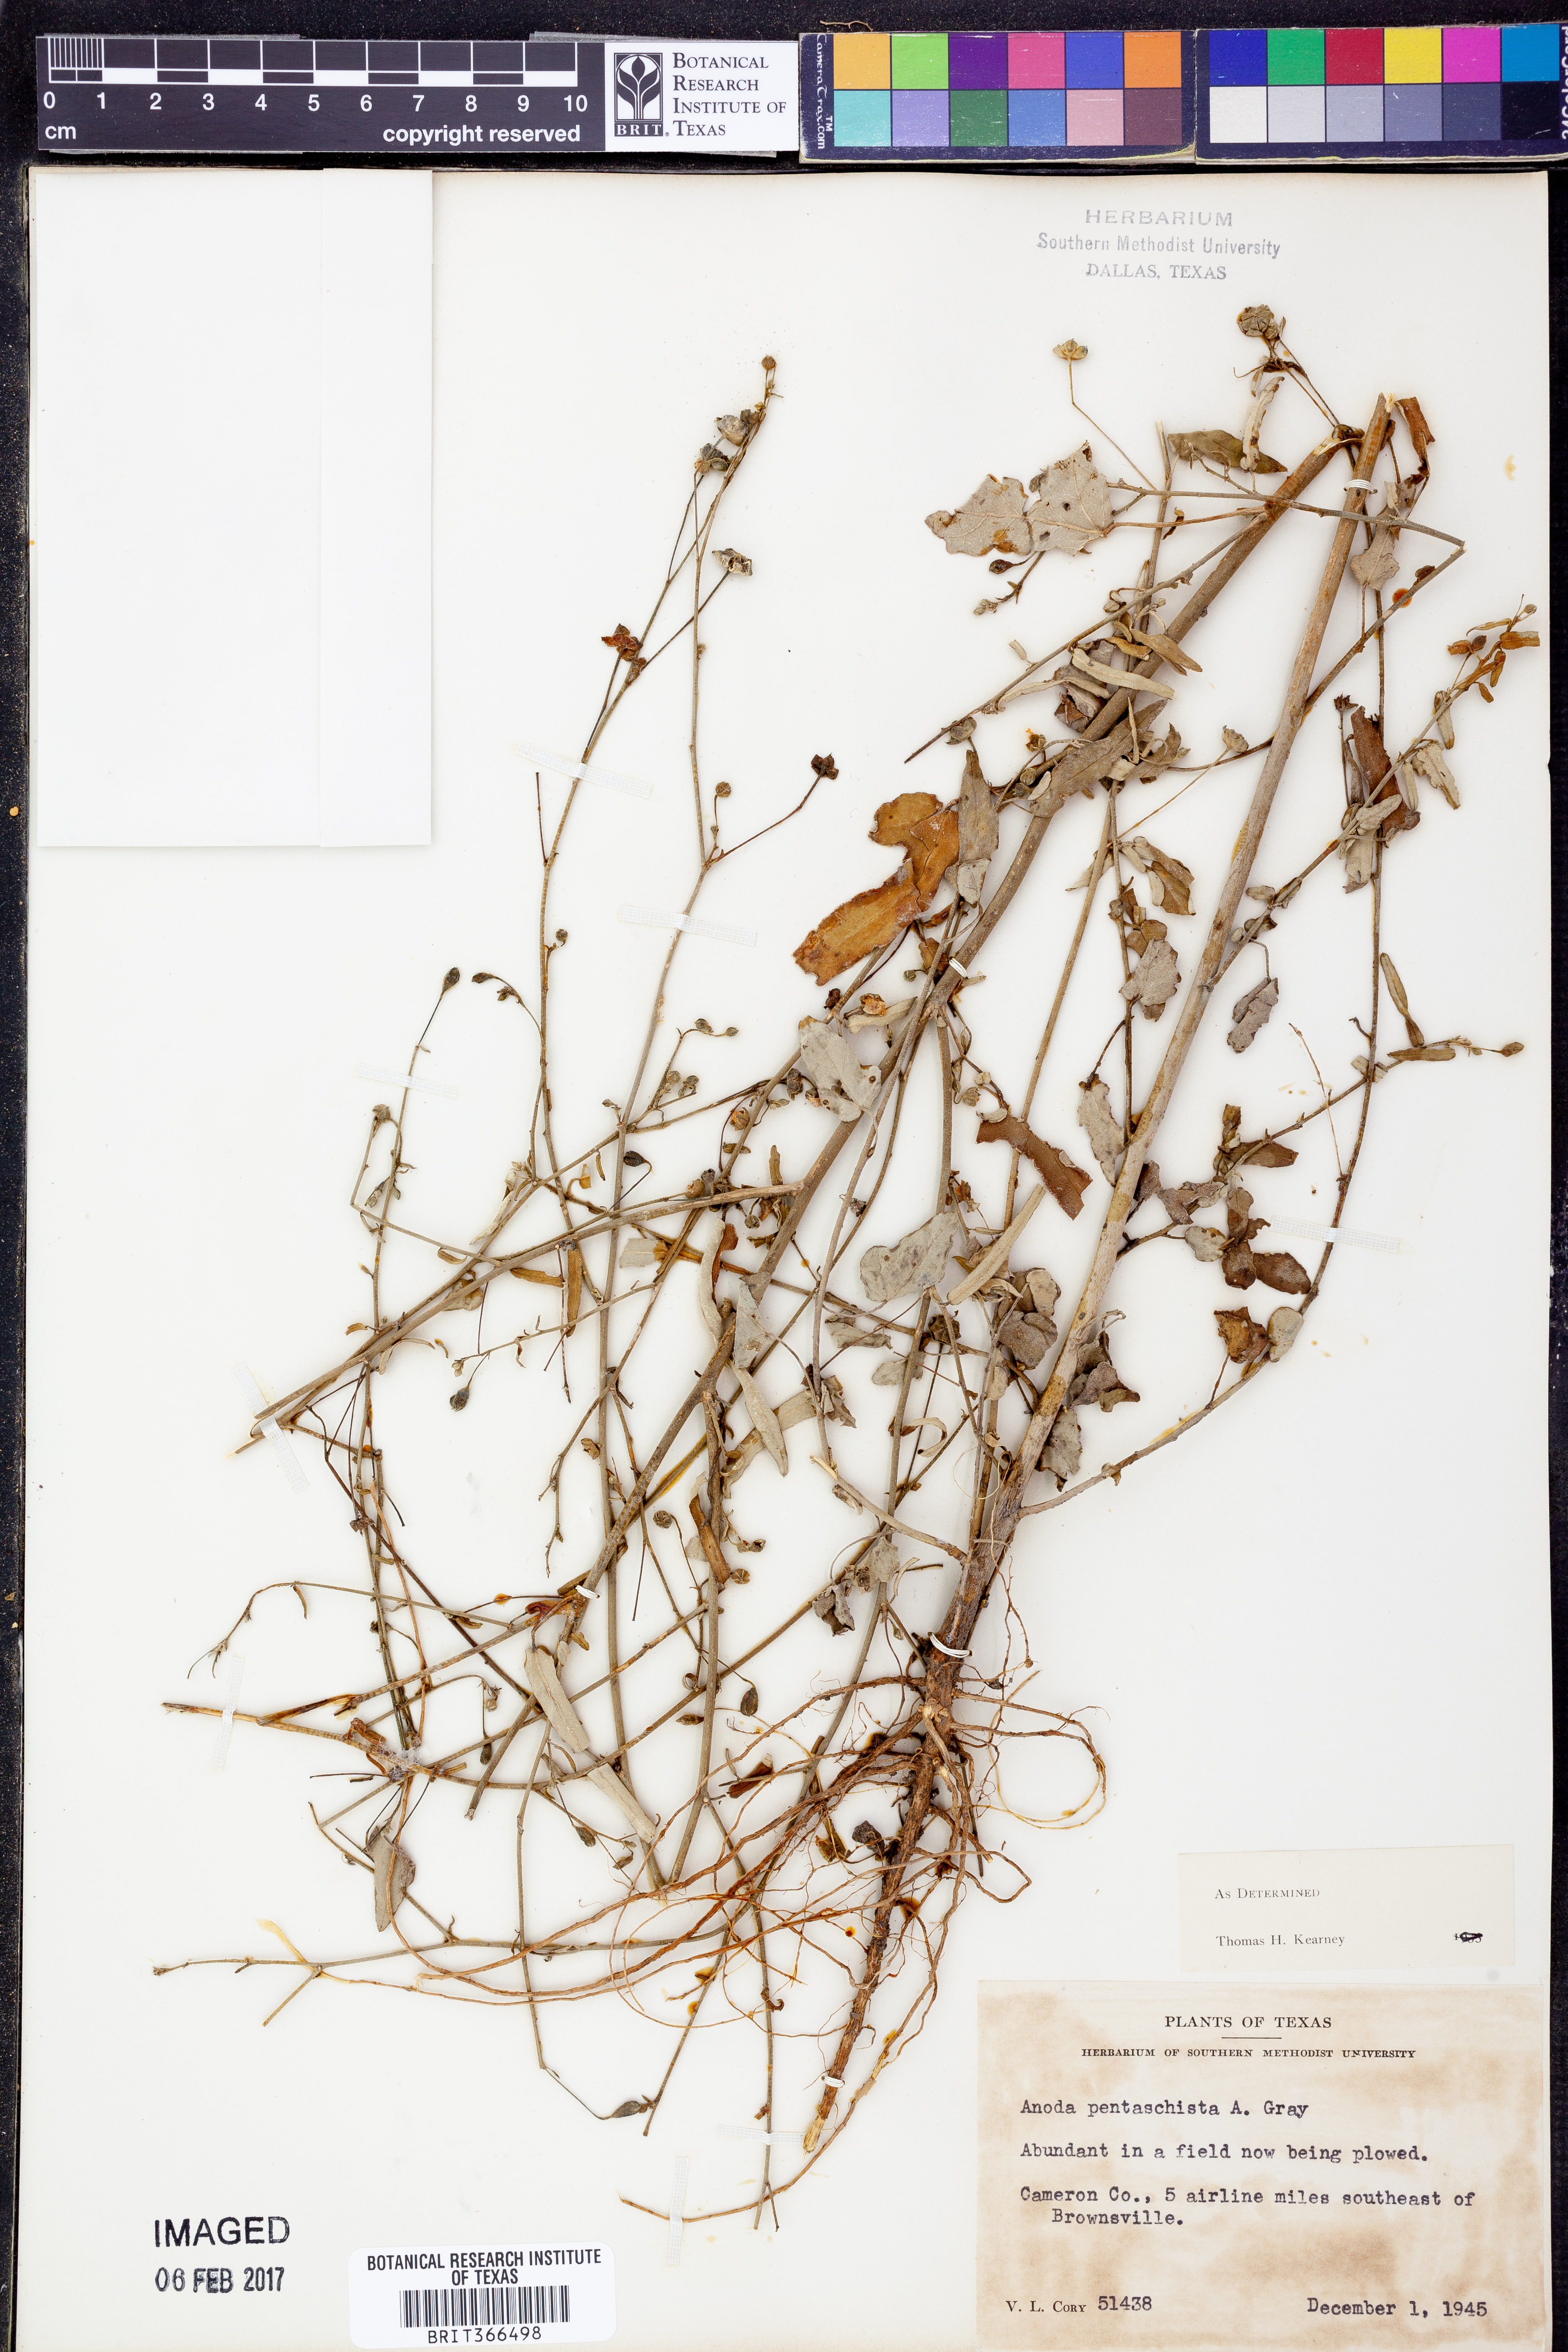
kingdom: Plantae
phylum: Tracheophyta
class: Magnoliopsida
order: Malvales
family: Malvaceae
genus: Anoda
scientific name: Anoda pentaschista
